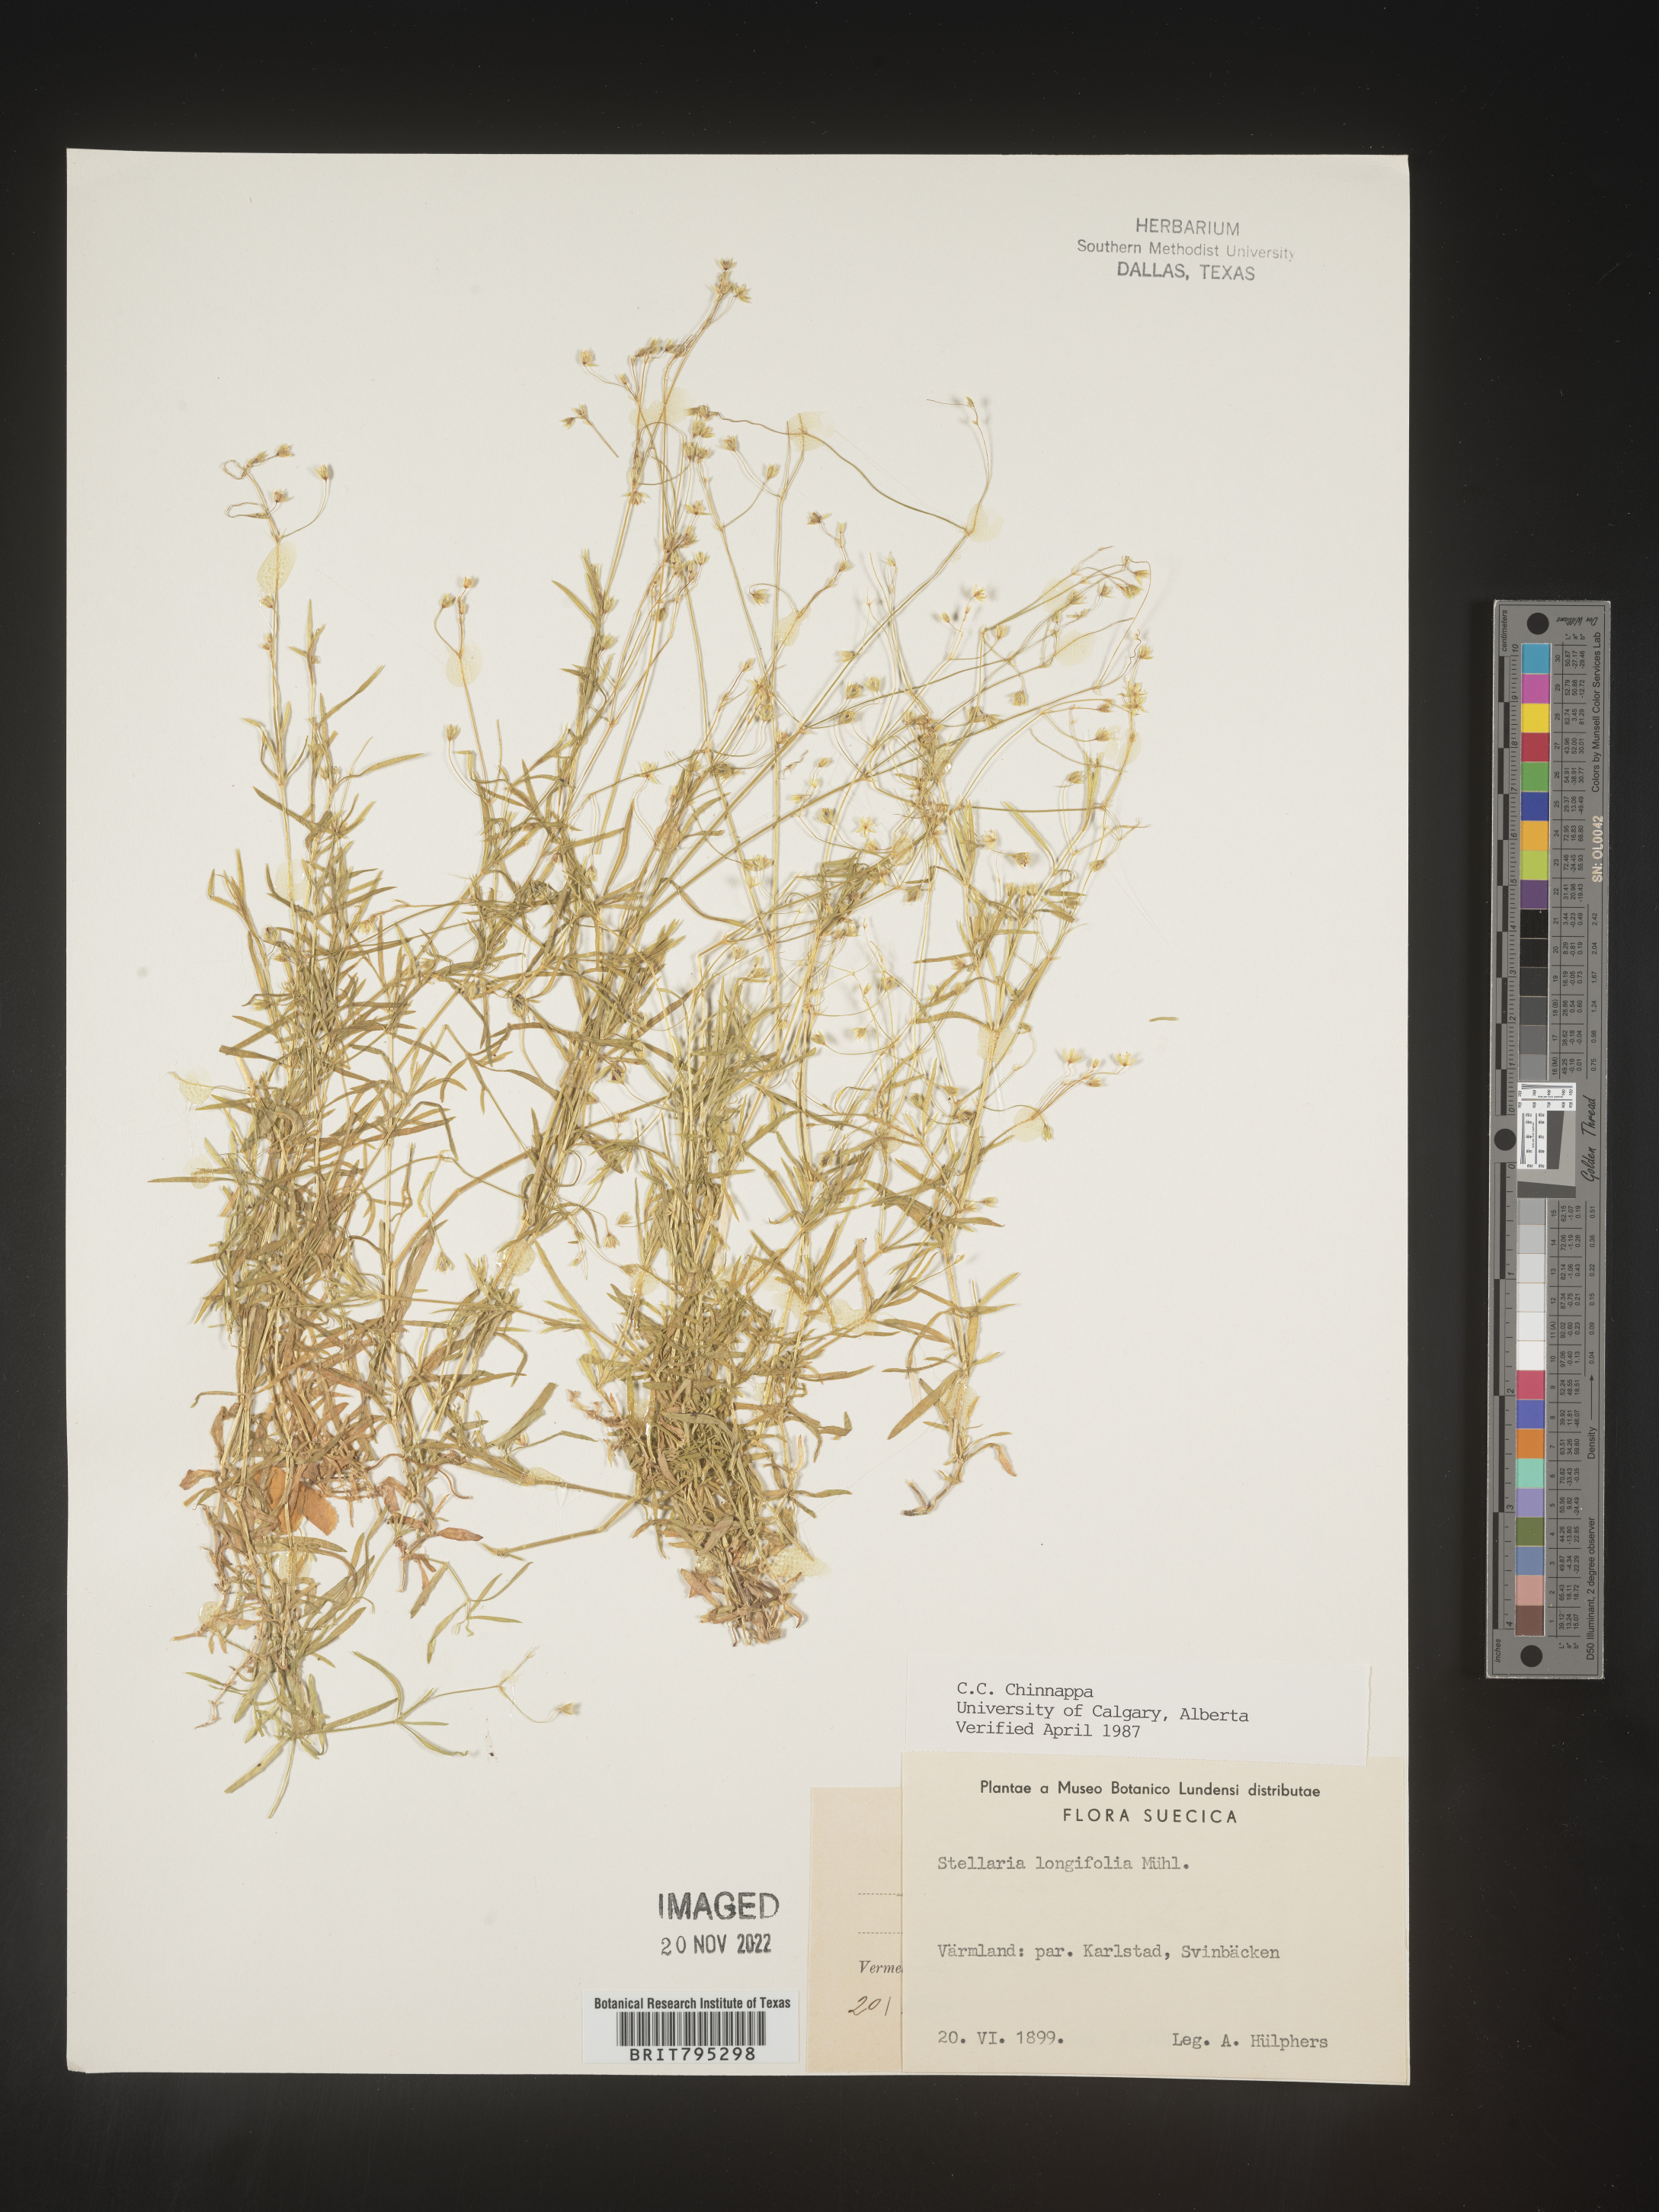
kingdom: Plantae
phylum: Tracheophyta
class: Magnoliopsida
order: Caryophyllales
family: Caryophyllaceae
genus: Stellaria
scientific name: Stellaria
